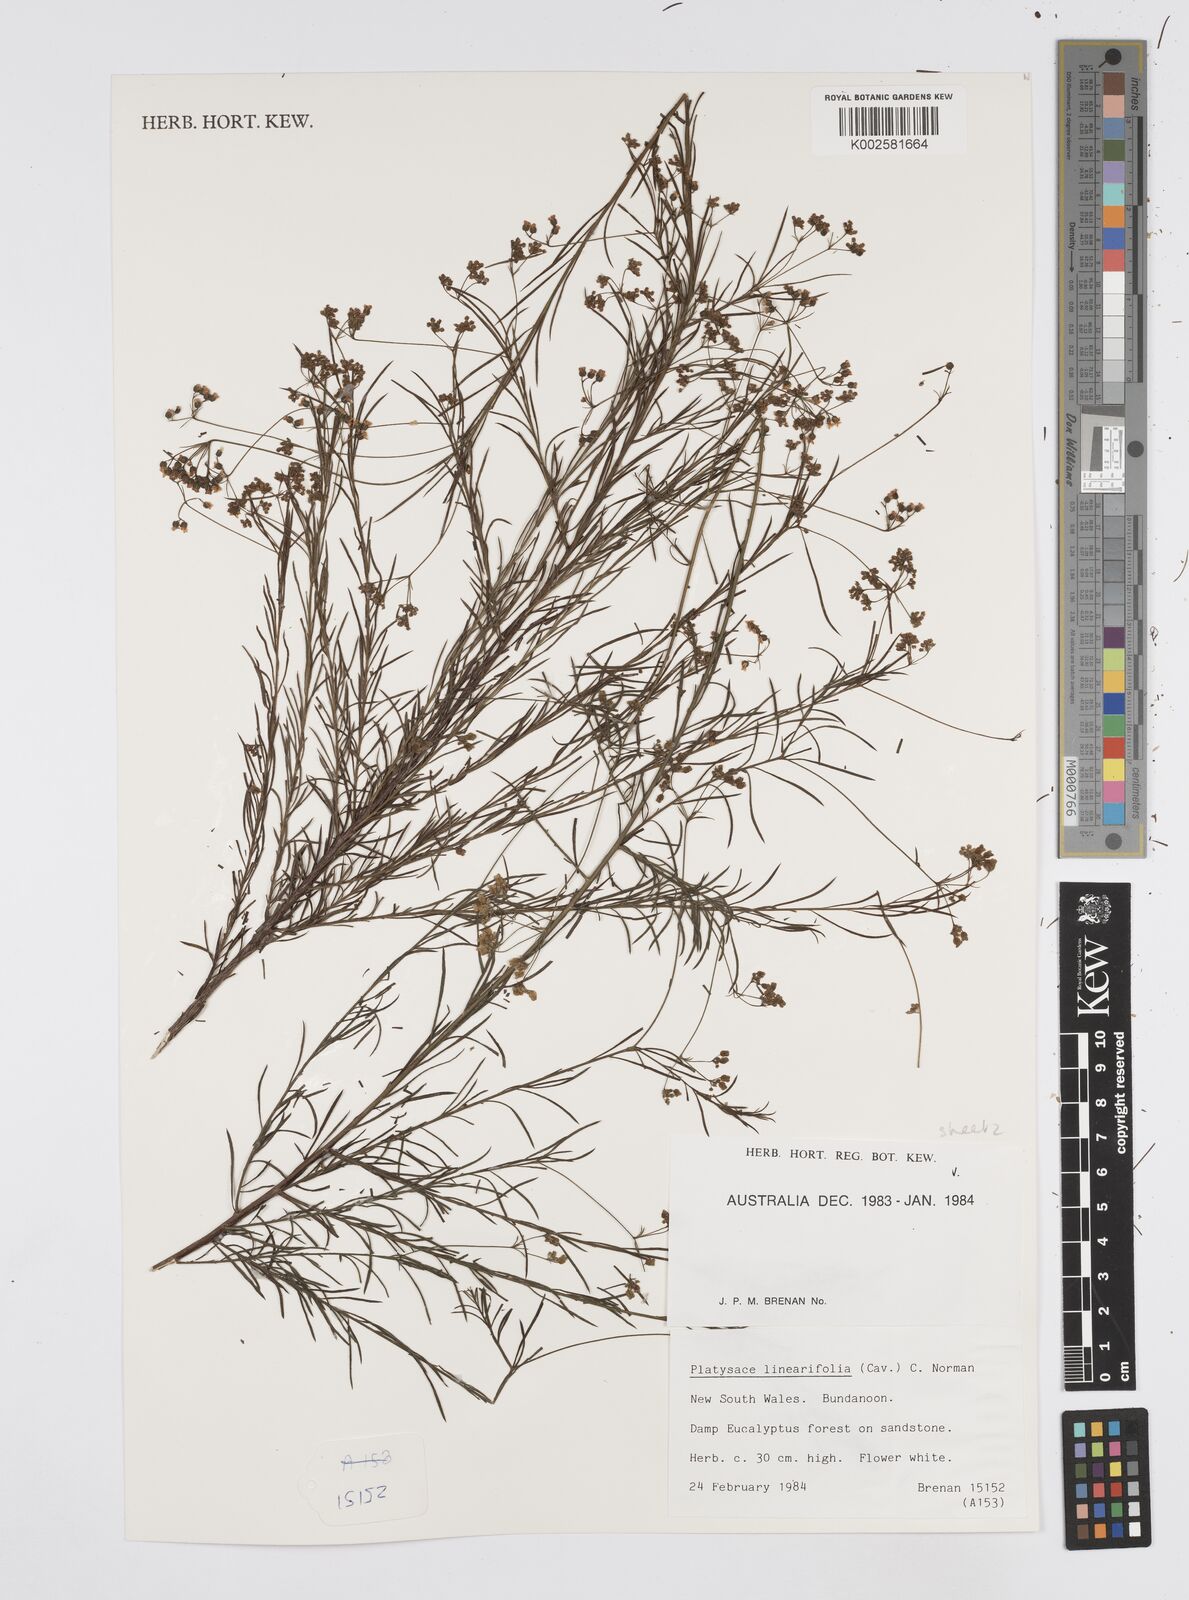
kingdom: Plantae
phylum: Tracheophyta
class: Magnoliopsida
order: Apiales
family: Apiaceae
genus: Platysace
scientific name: Platysace linearifolia
